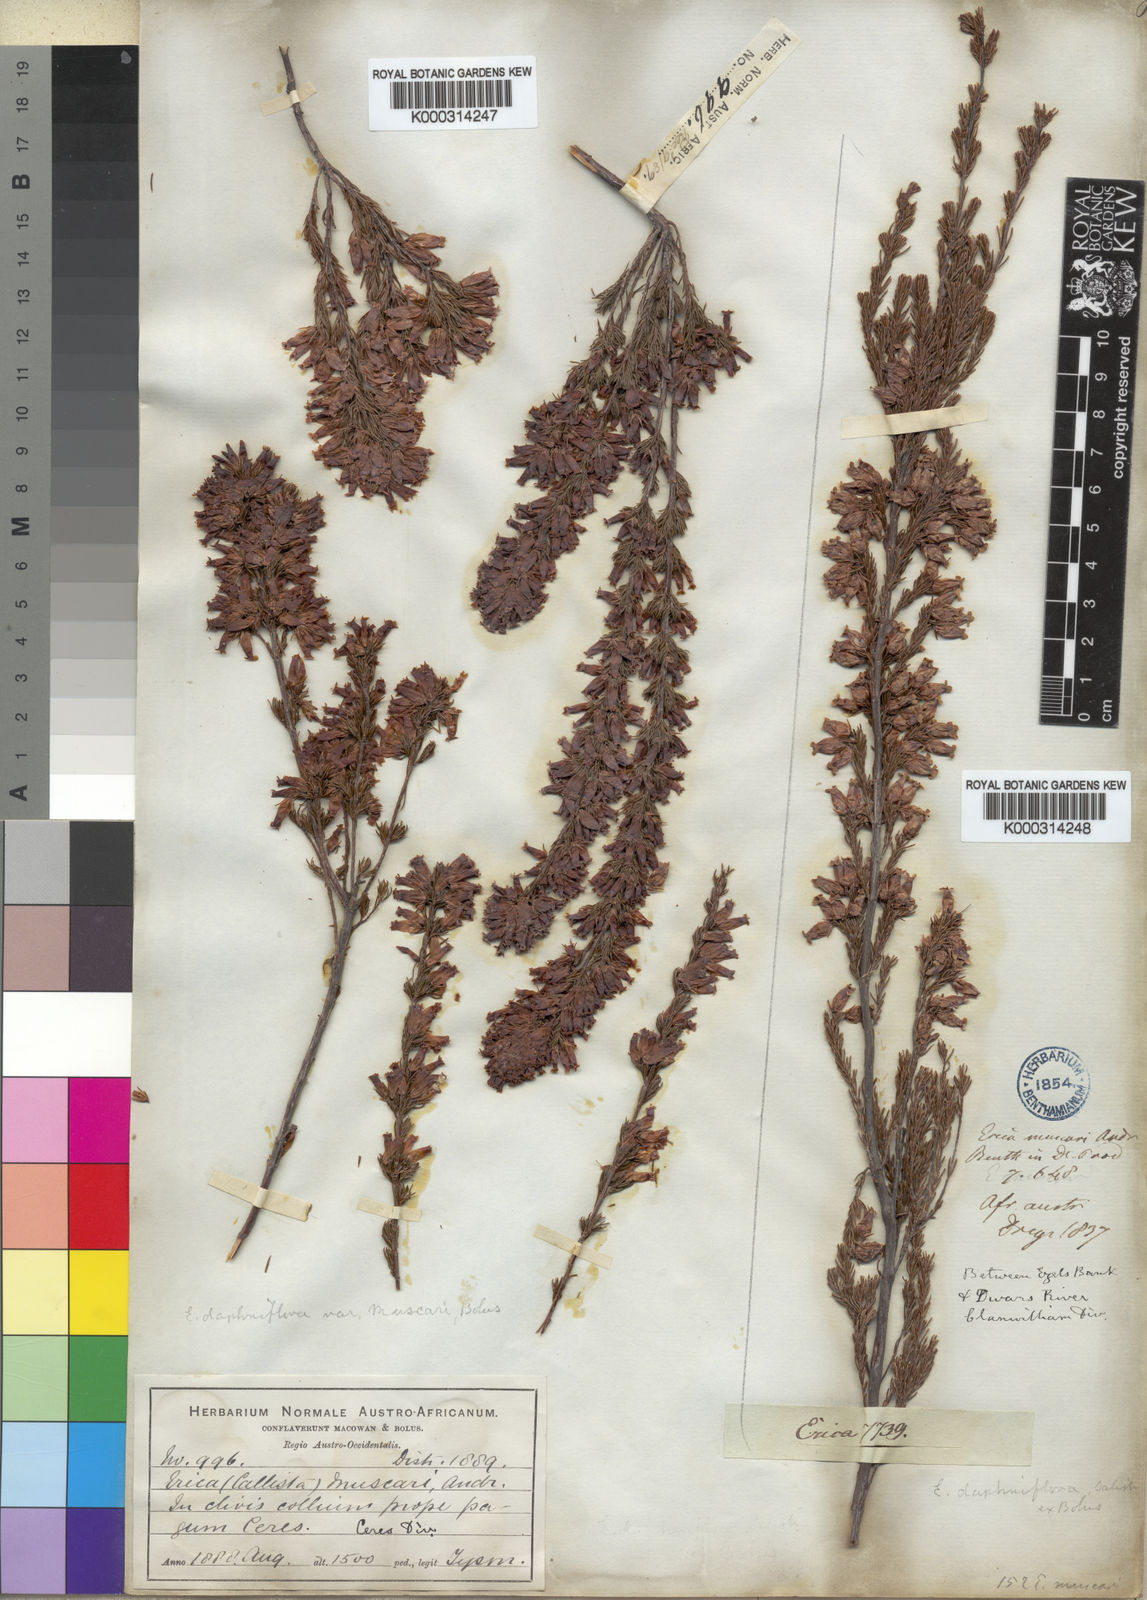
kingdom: Plantae
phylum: Tracheophyta
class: Magnoliopsida
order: Ericales
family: Ericaceae
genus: Erica
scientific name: Erica daphniflora
